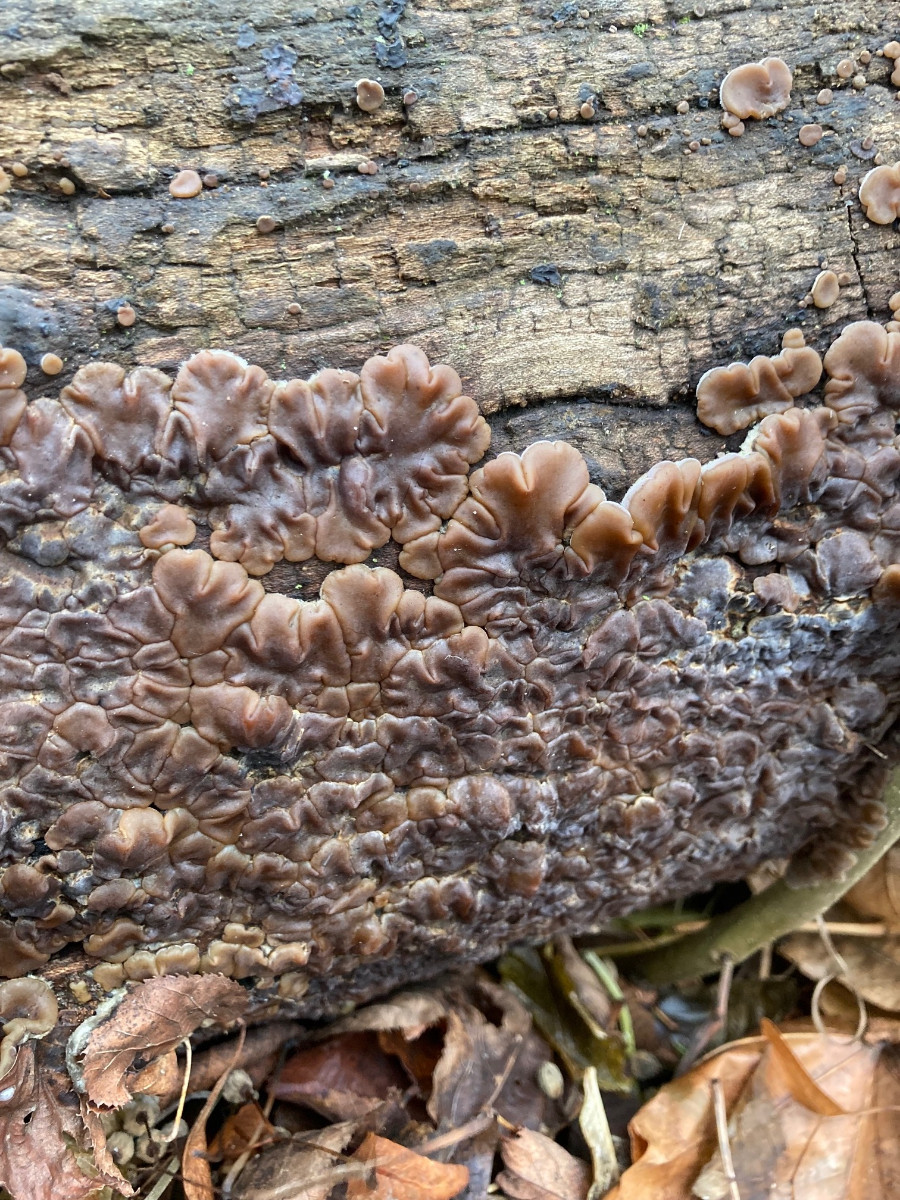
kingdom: Fungi
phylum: Basidiomycota
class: Agaricomycetes
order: Auriculariales
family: Auriculariaceae
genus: Auricularia
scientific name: Auricularia mesenterica
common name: håret judasøre
